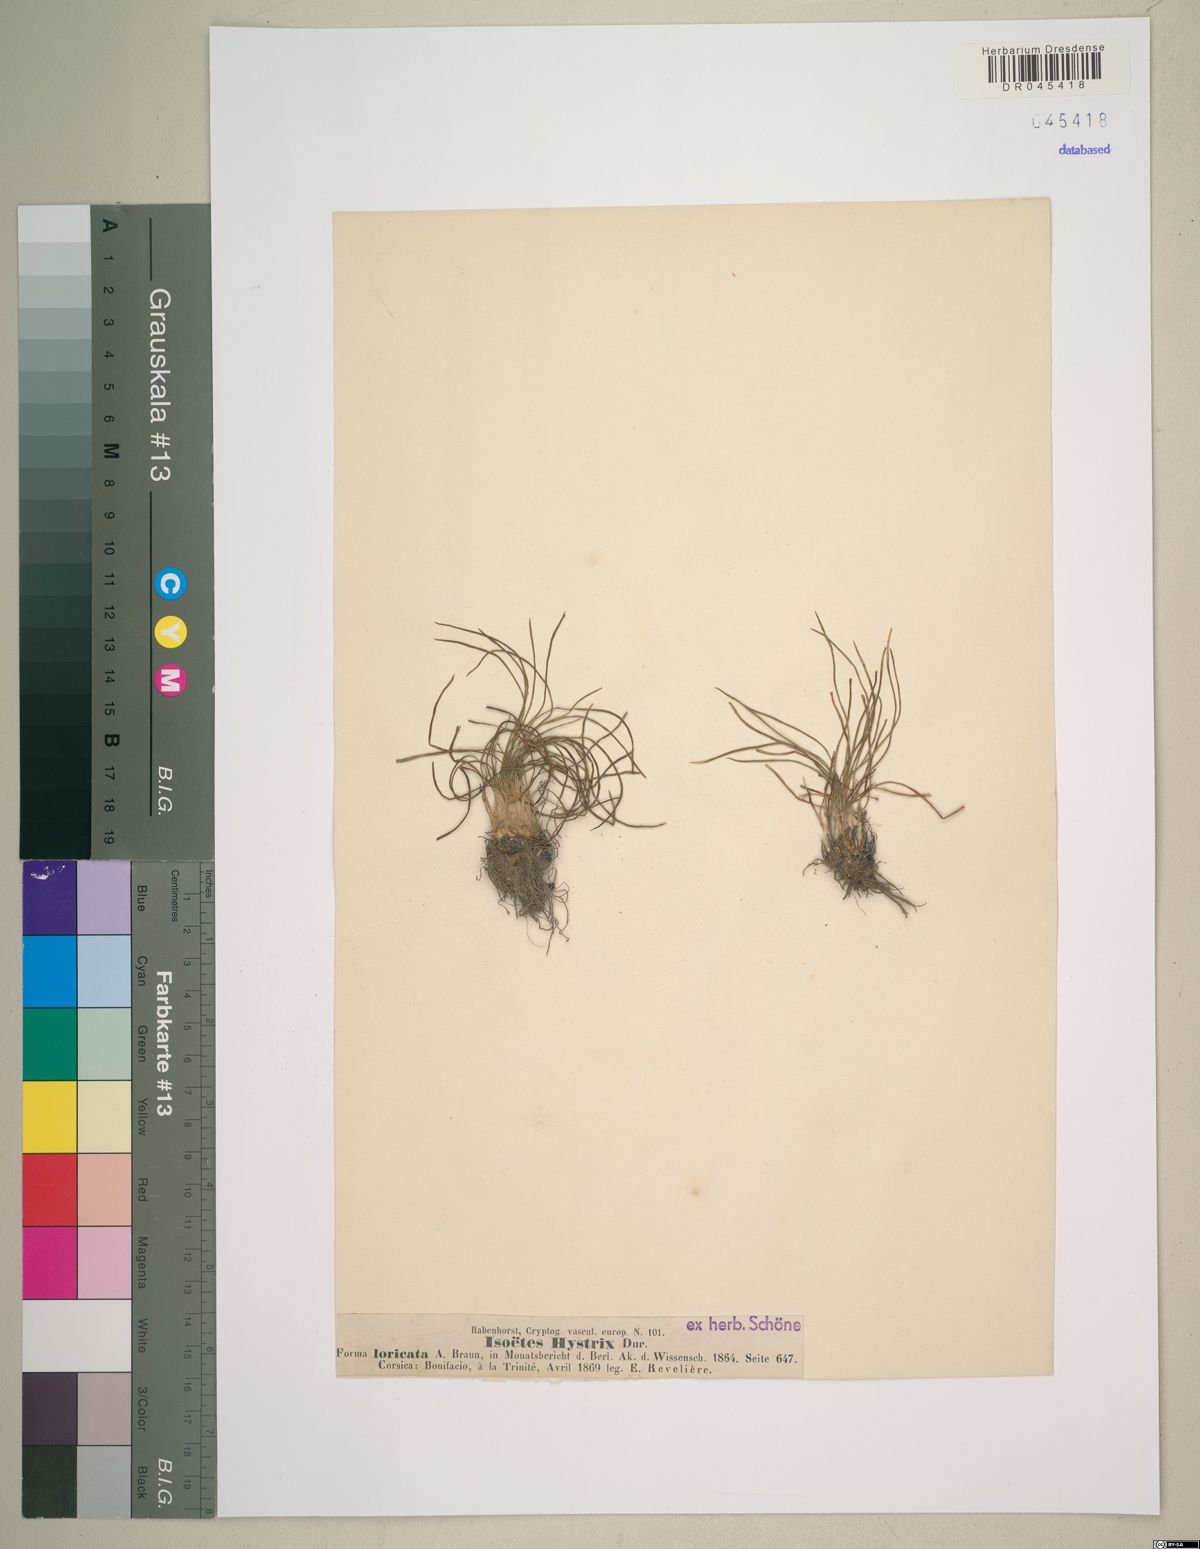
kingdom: Plantae
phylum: Tracheophyta
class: Lycopodiopsida
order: Isoetales
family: Isoetaceae
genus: Isoetes
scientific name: Isoetes histrix
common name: Land quillwort
